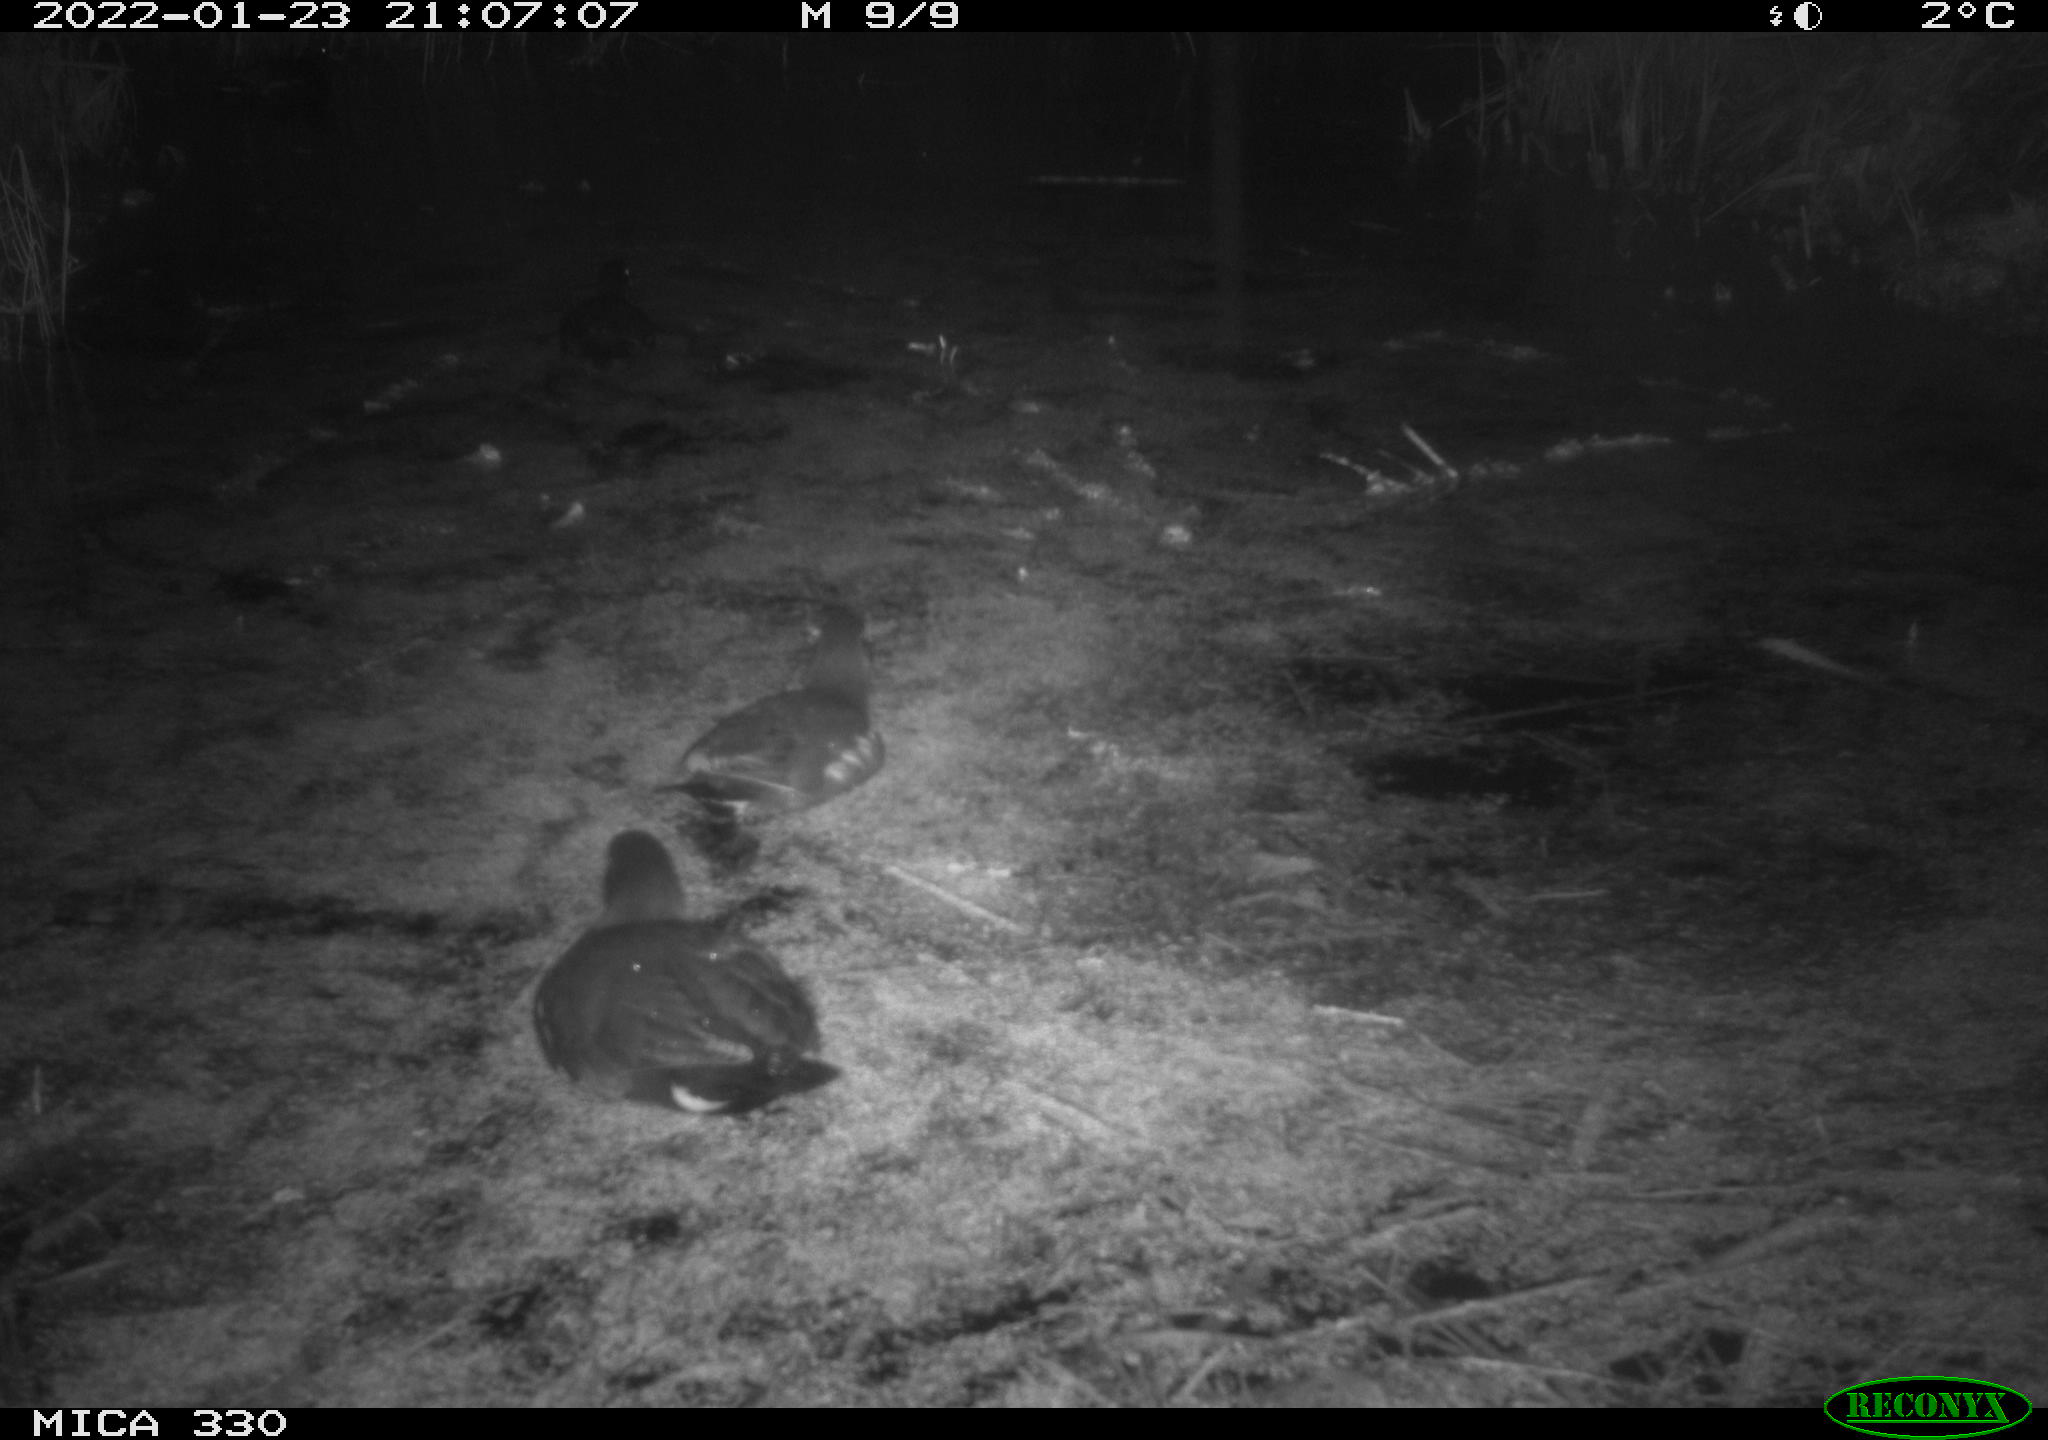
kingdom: Animalia
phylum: Chordata
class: Aves
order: Gruiformes
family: Rallidae
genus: Gallinula
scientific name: Gallinula chloropus
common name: Common moorhen
